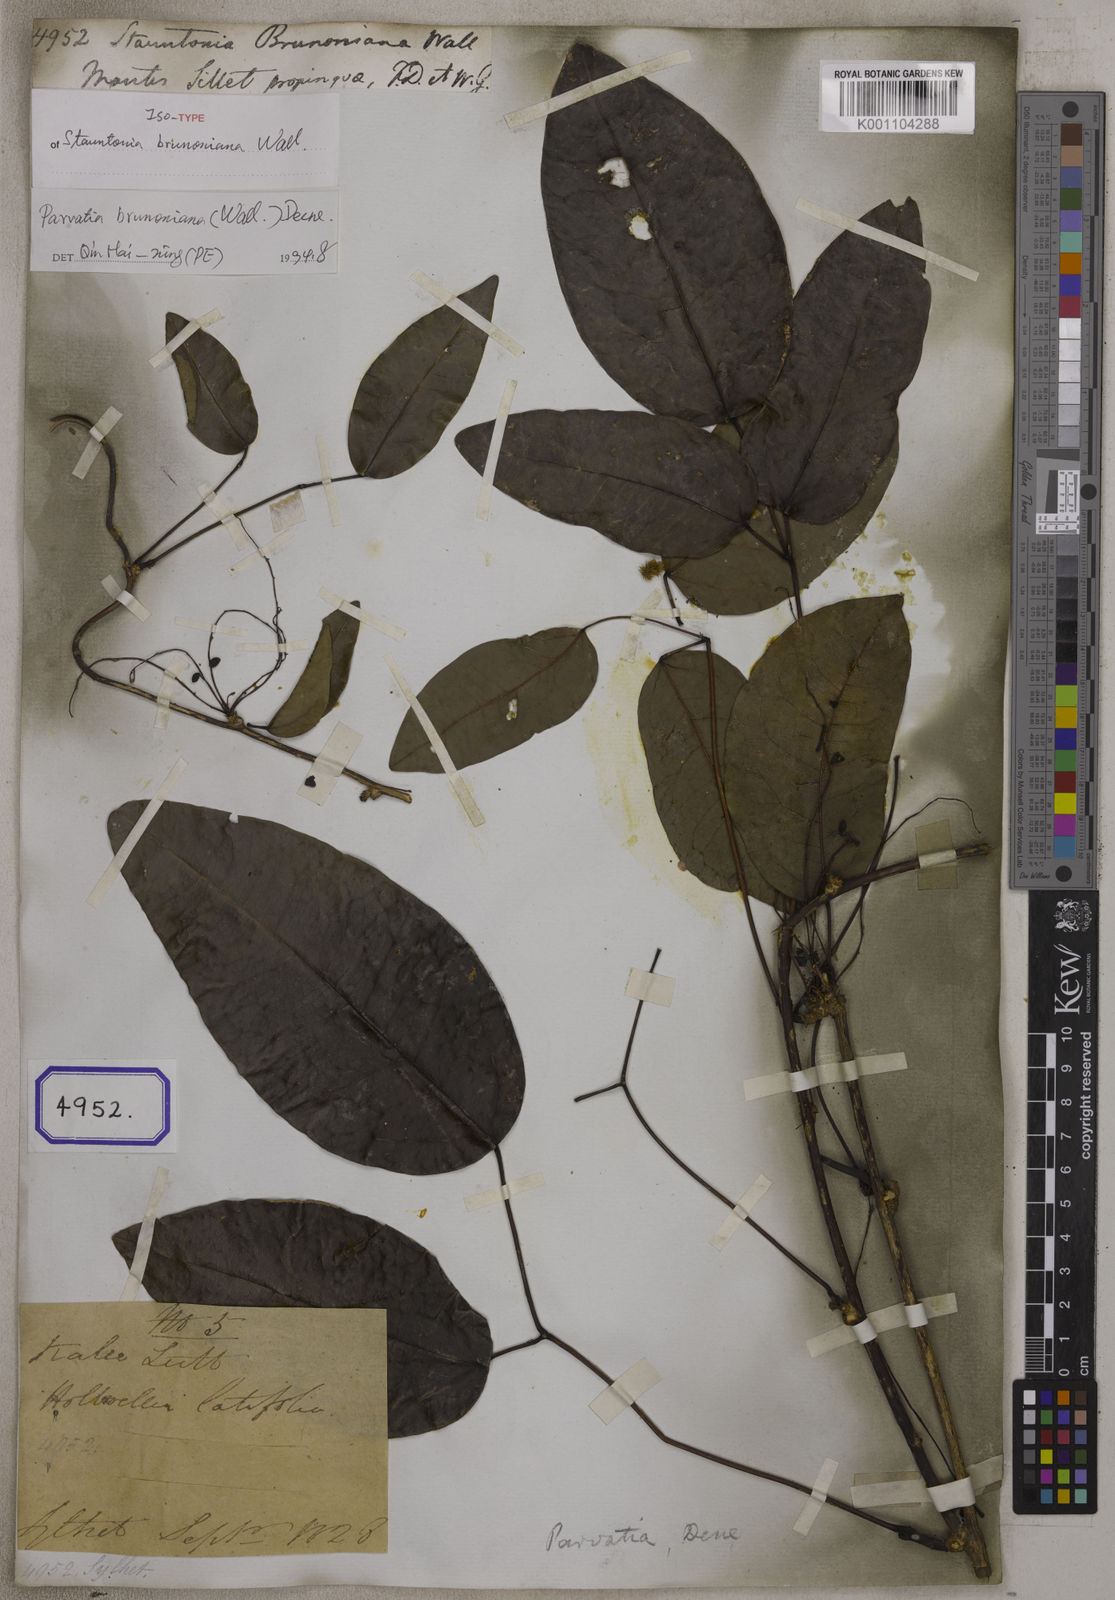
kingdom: Plantae
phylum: Tracheophyta
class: Magnoliopsida
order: Ranunculales
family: Lardizabalaceae
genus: Stauntonia
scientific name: Stauntonia
